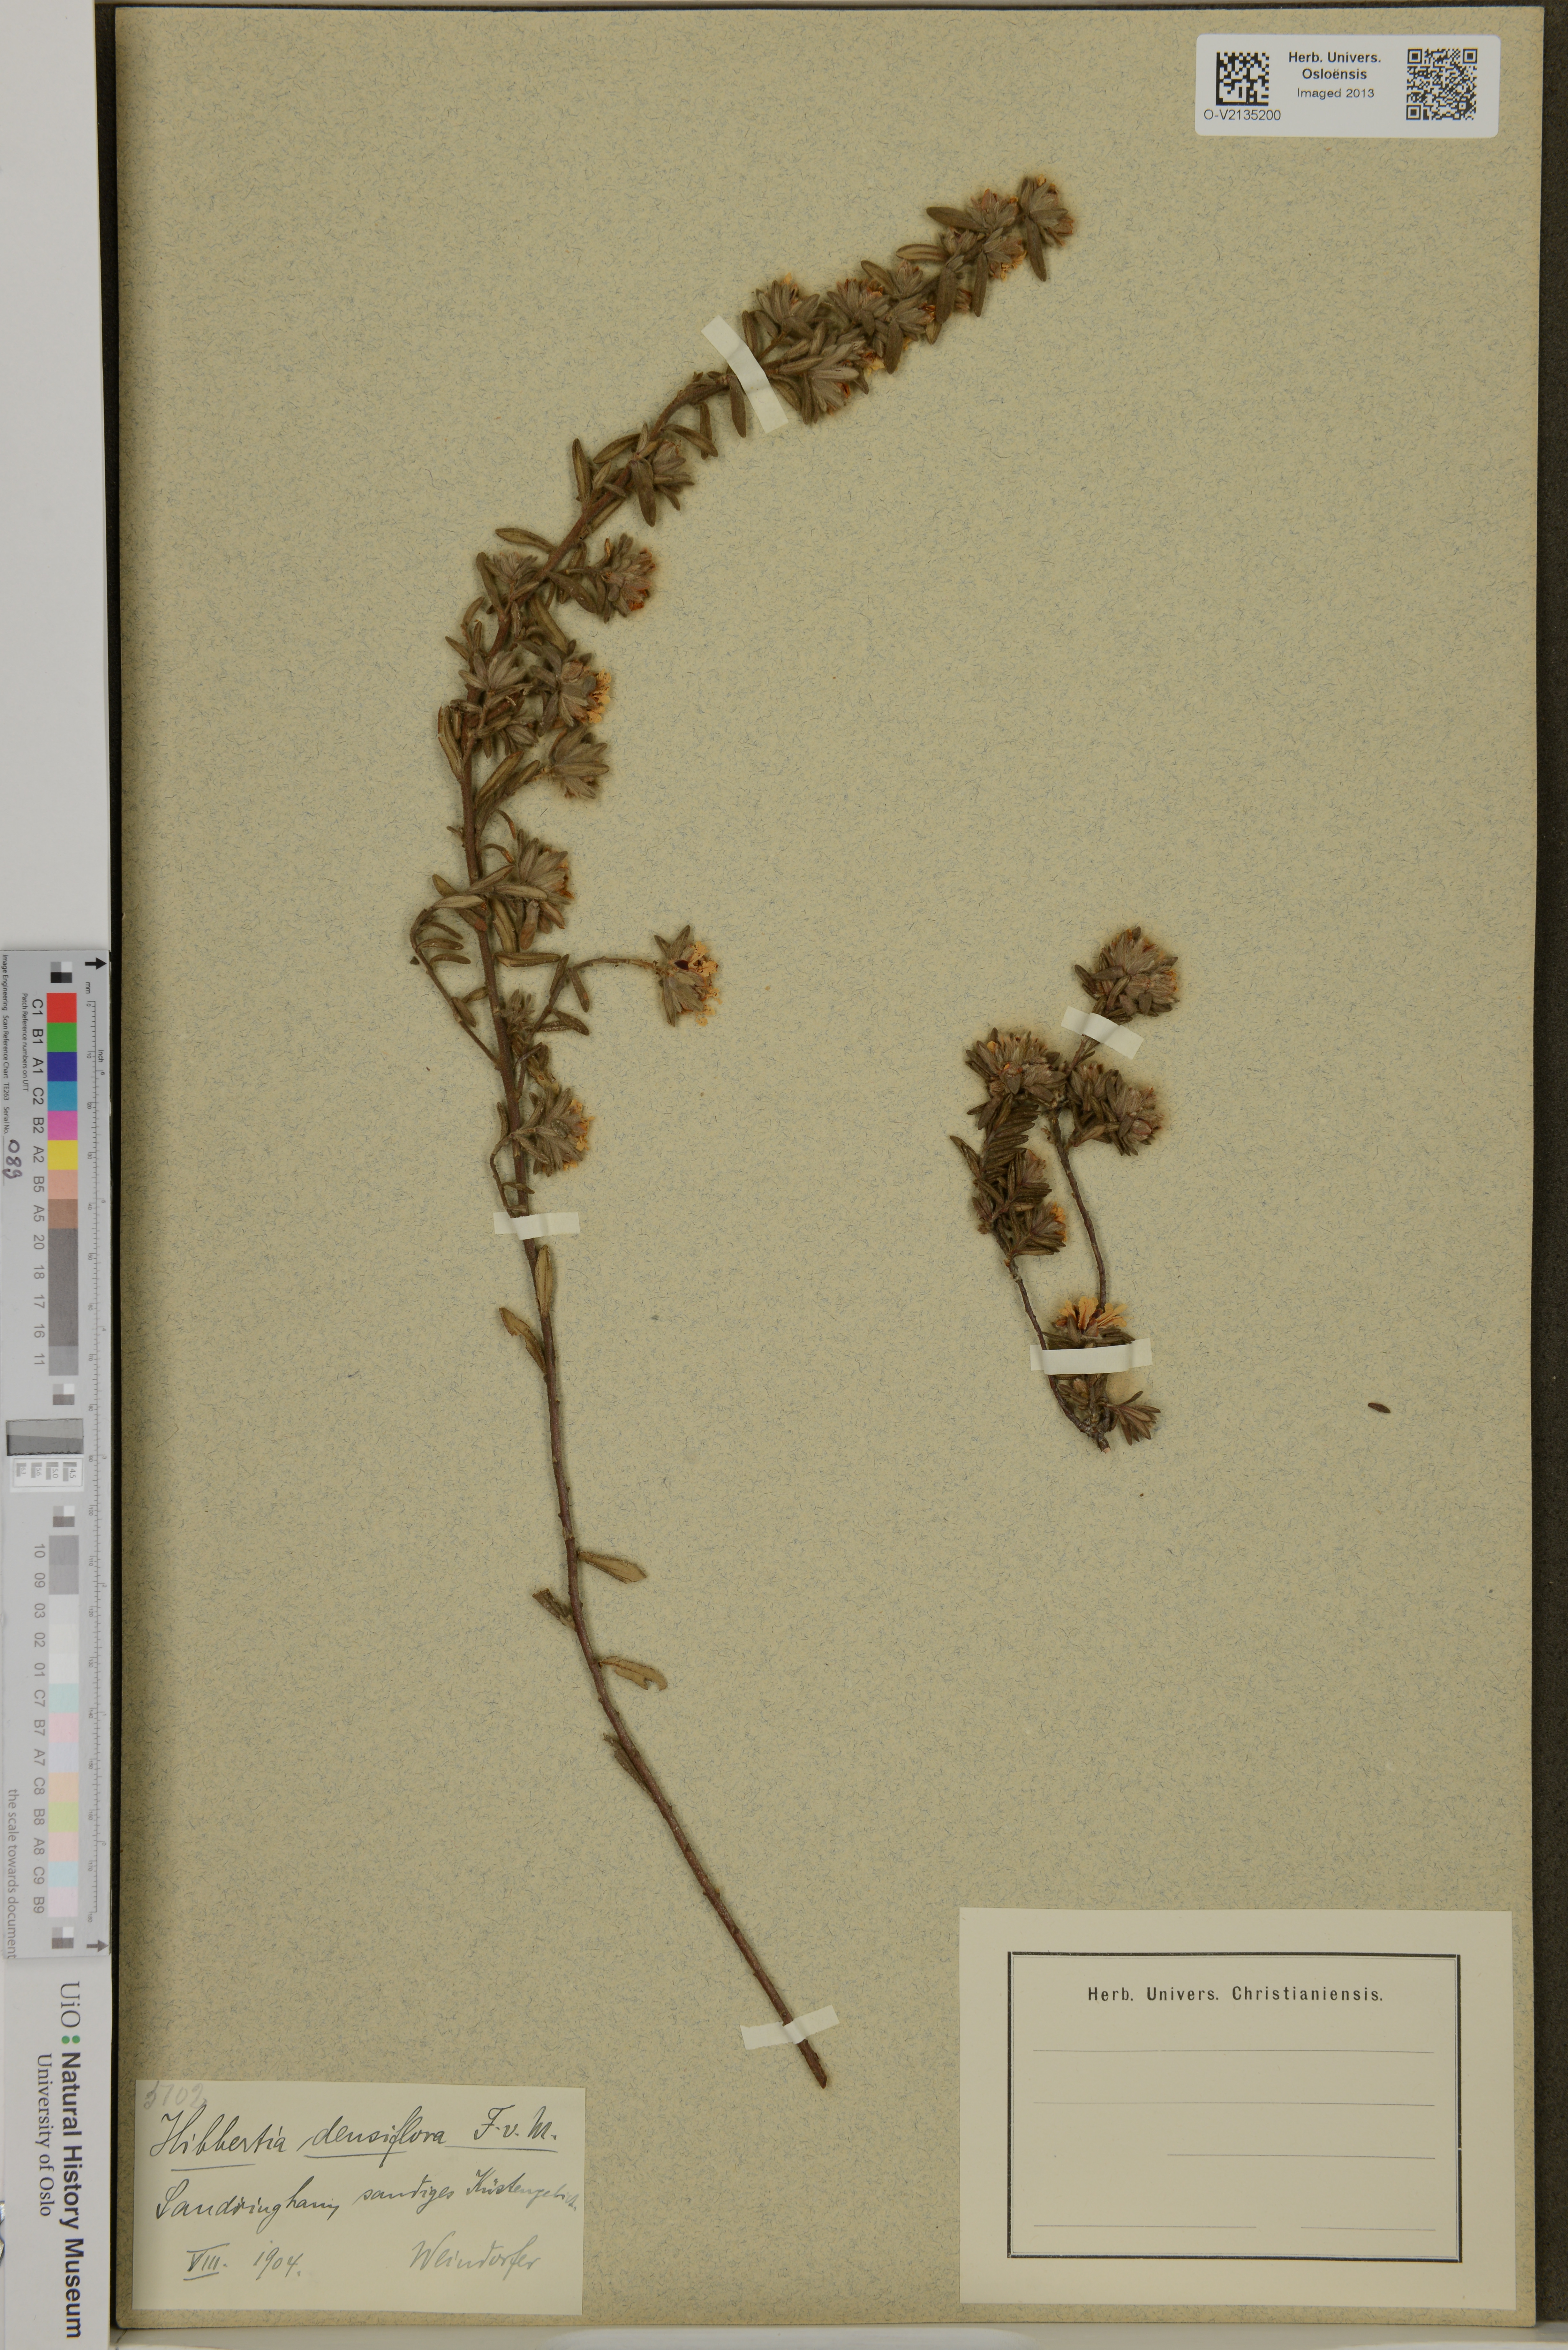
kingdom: Plantae
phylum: Tracheophyta
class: Magnoliopsida
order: Dilleniales
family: Dilleniaceae
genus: Hibbertia
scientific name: Hibbertia sericea
